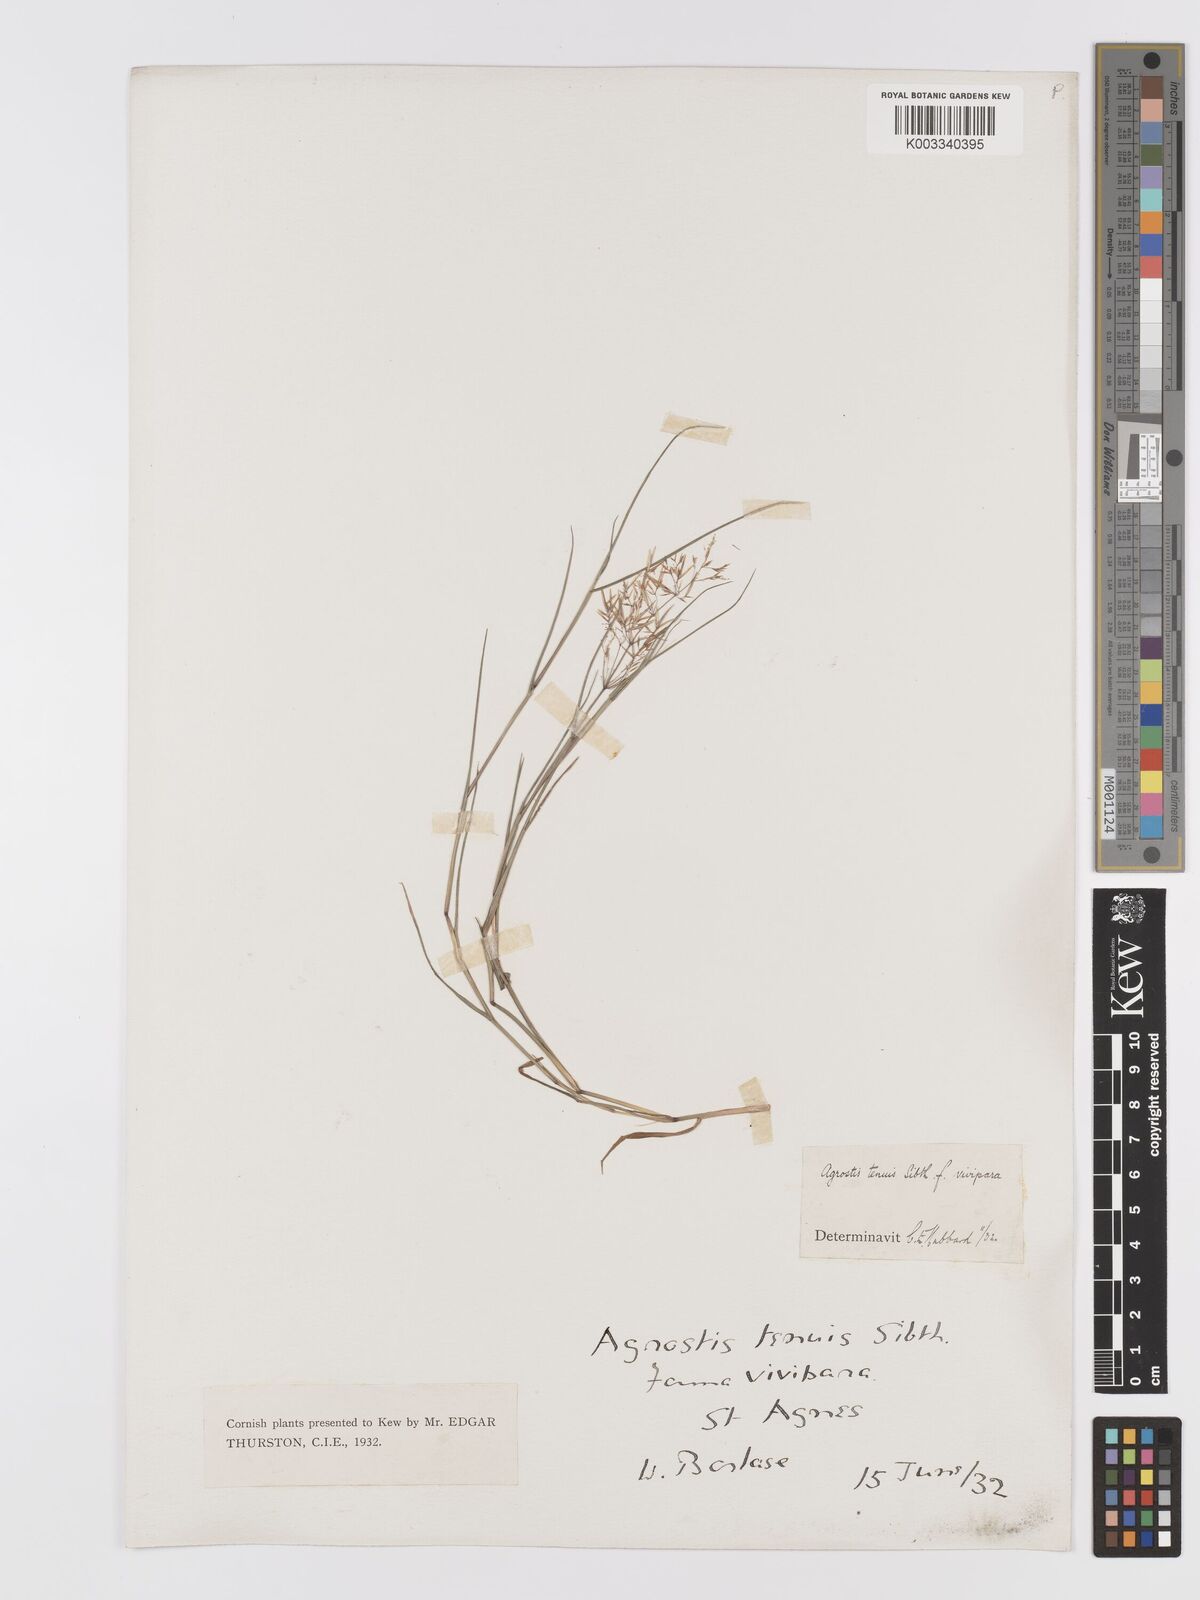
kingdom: Plantae
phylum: Tracheophyta
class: Liliopsida
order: Poales
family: Poaceae
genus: Agrostis
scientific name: Agrostis capillaris
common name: Colonial bentgrass
